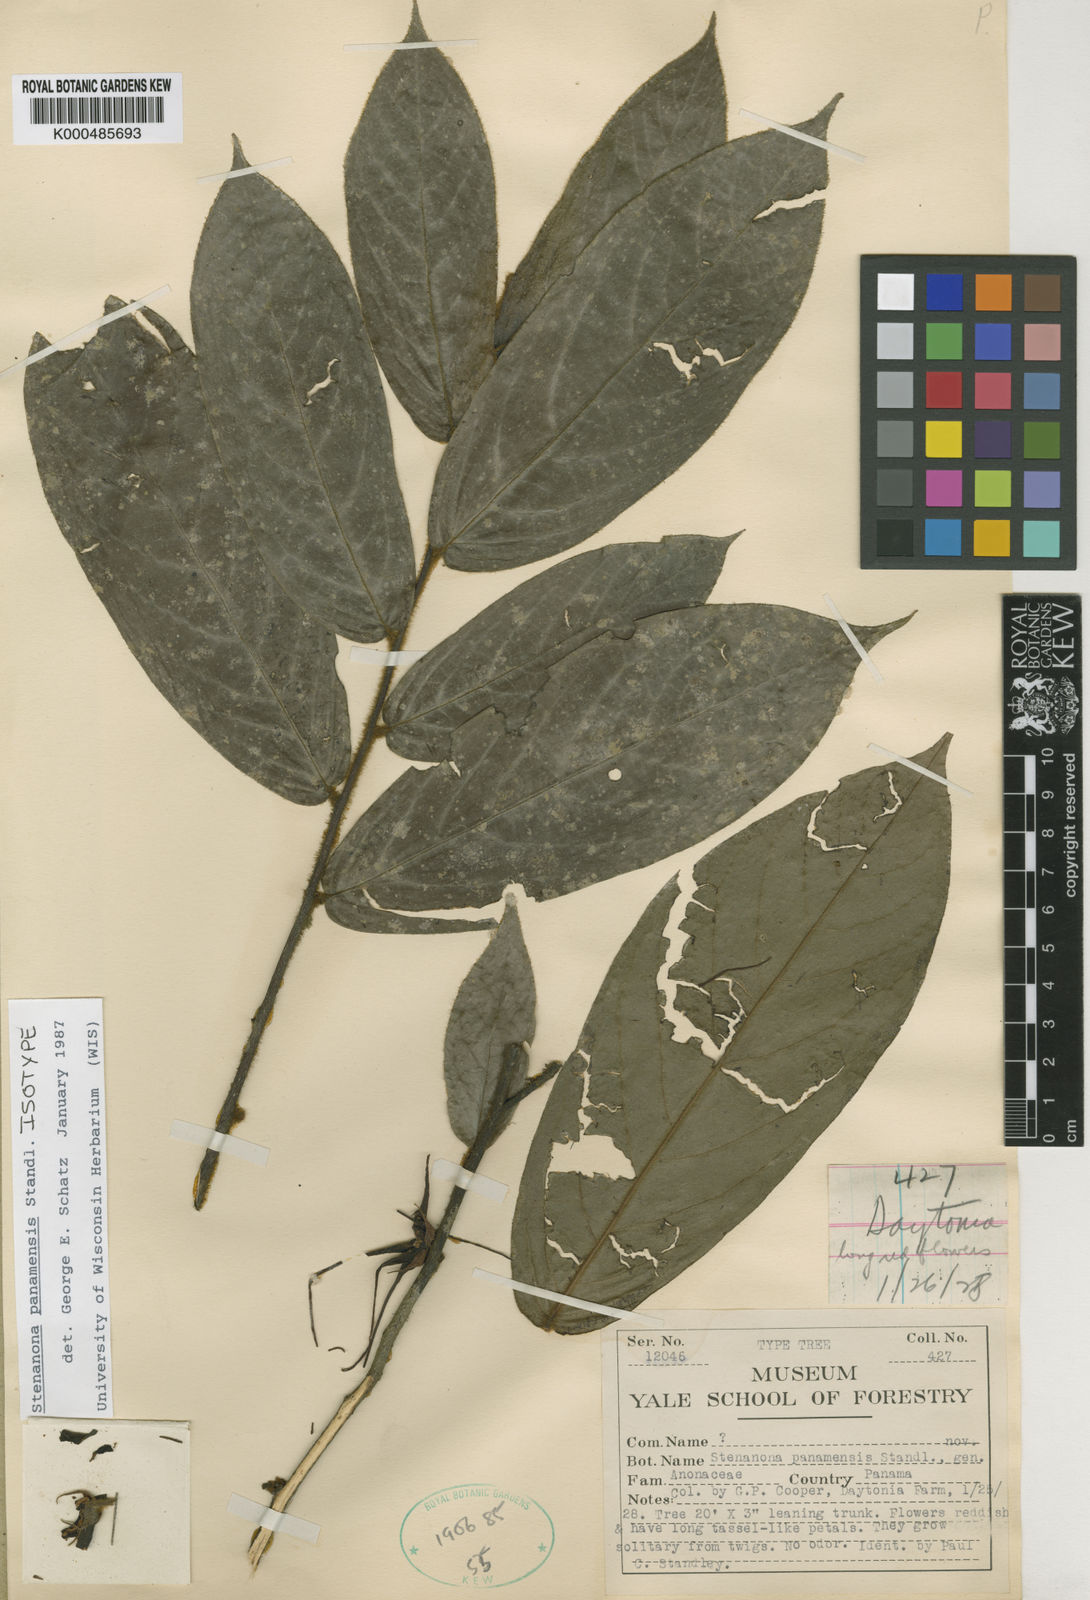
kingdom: Plantae
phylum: Tracheophyta
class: Magnoliopsida
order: Magnoliales
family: Annonaceae
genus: Stenanona
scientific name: Stenanona panamensis
